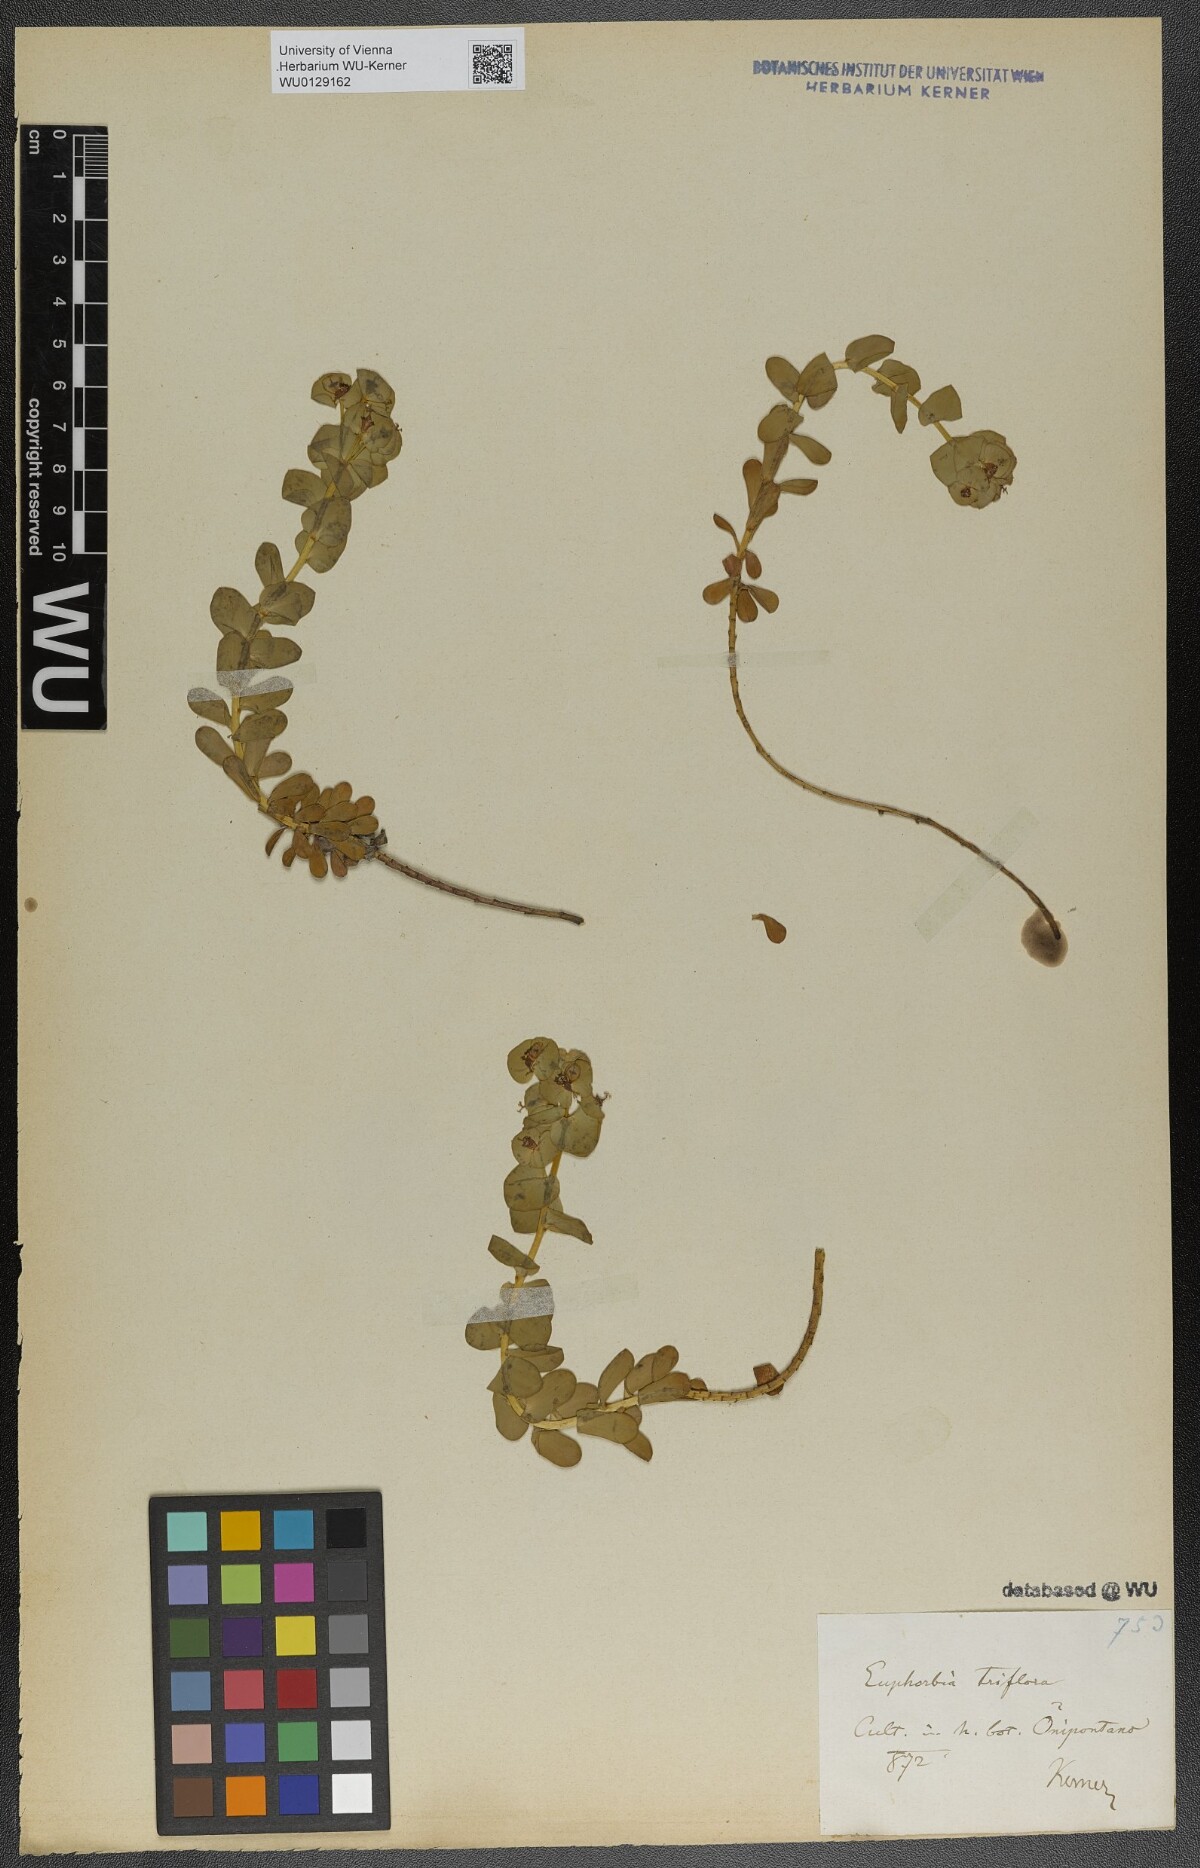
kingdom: Plantae
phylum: Tracheophyta
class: Magnoliopsida
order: Malpighiales
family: Euphorbiaceae
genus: Euphorbia
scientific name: Euphorbia triflora
